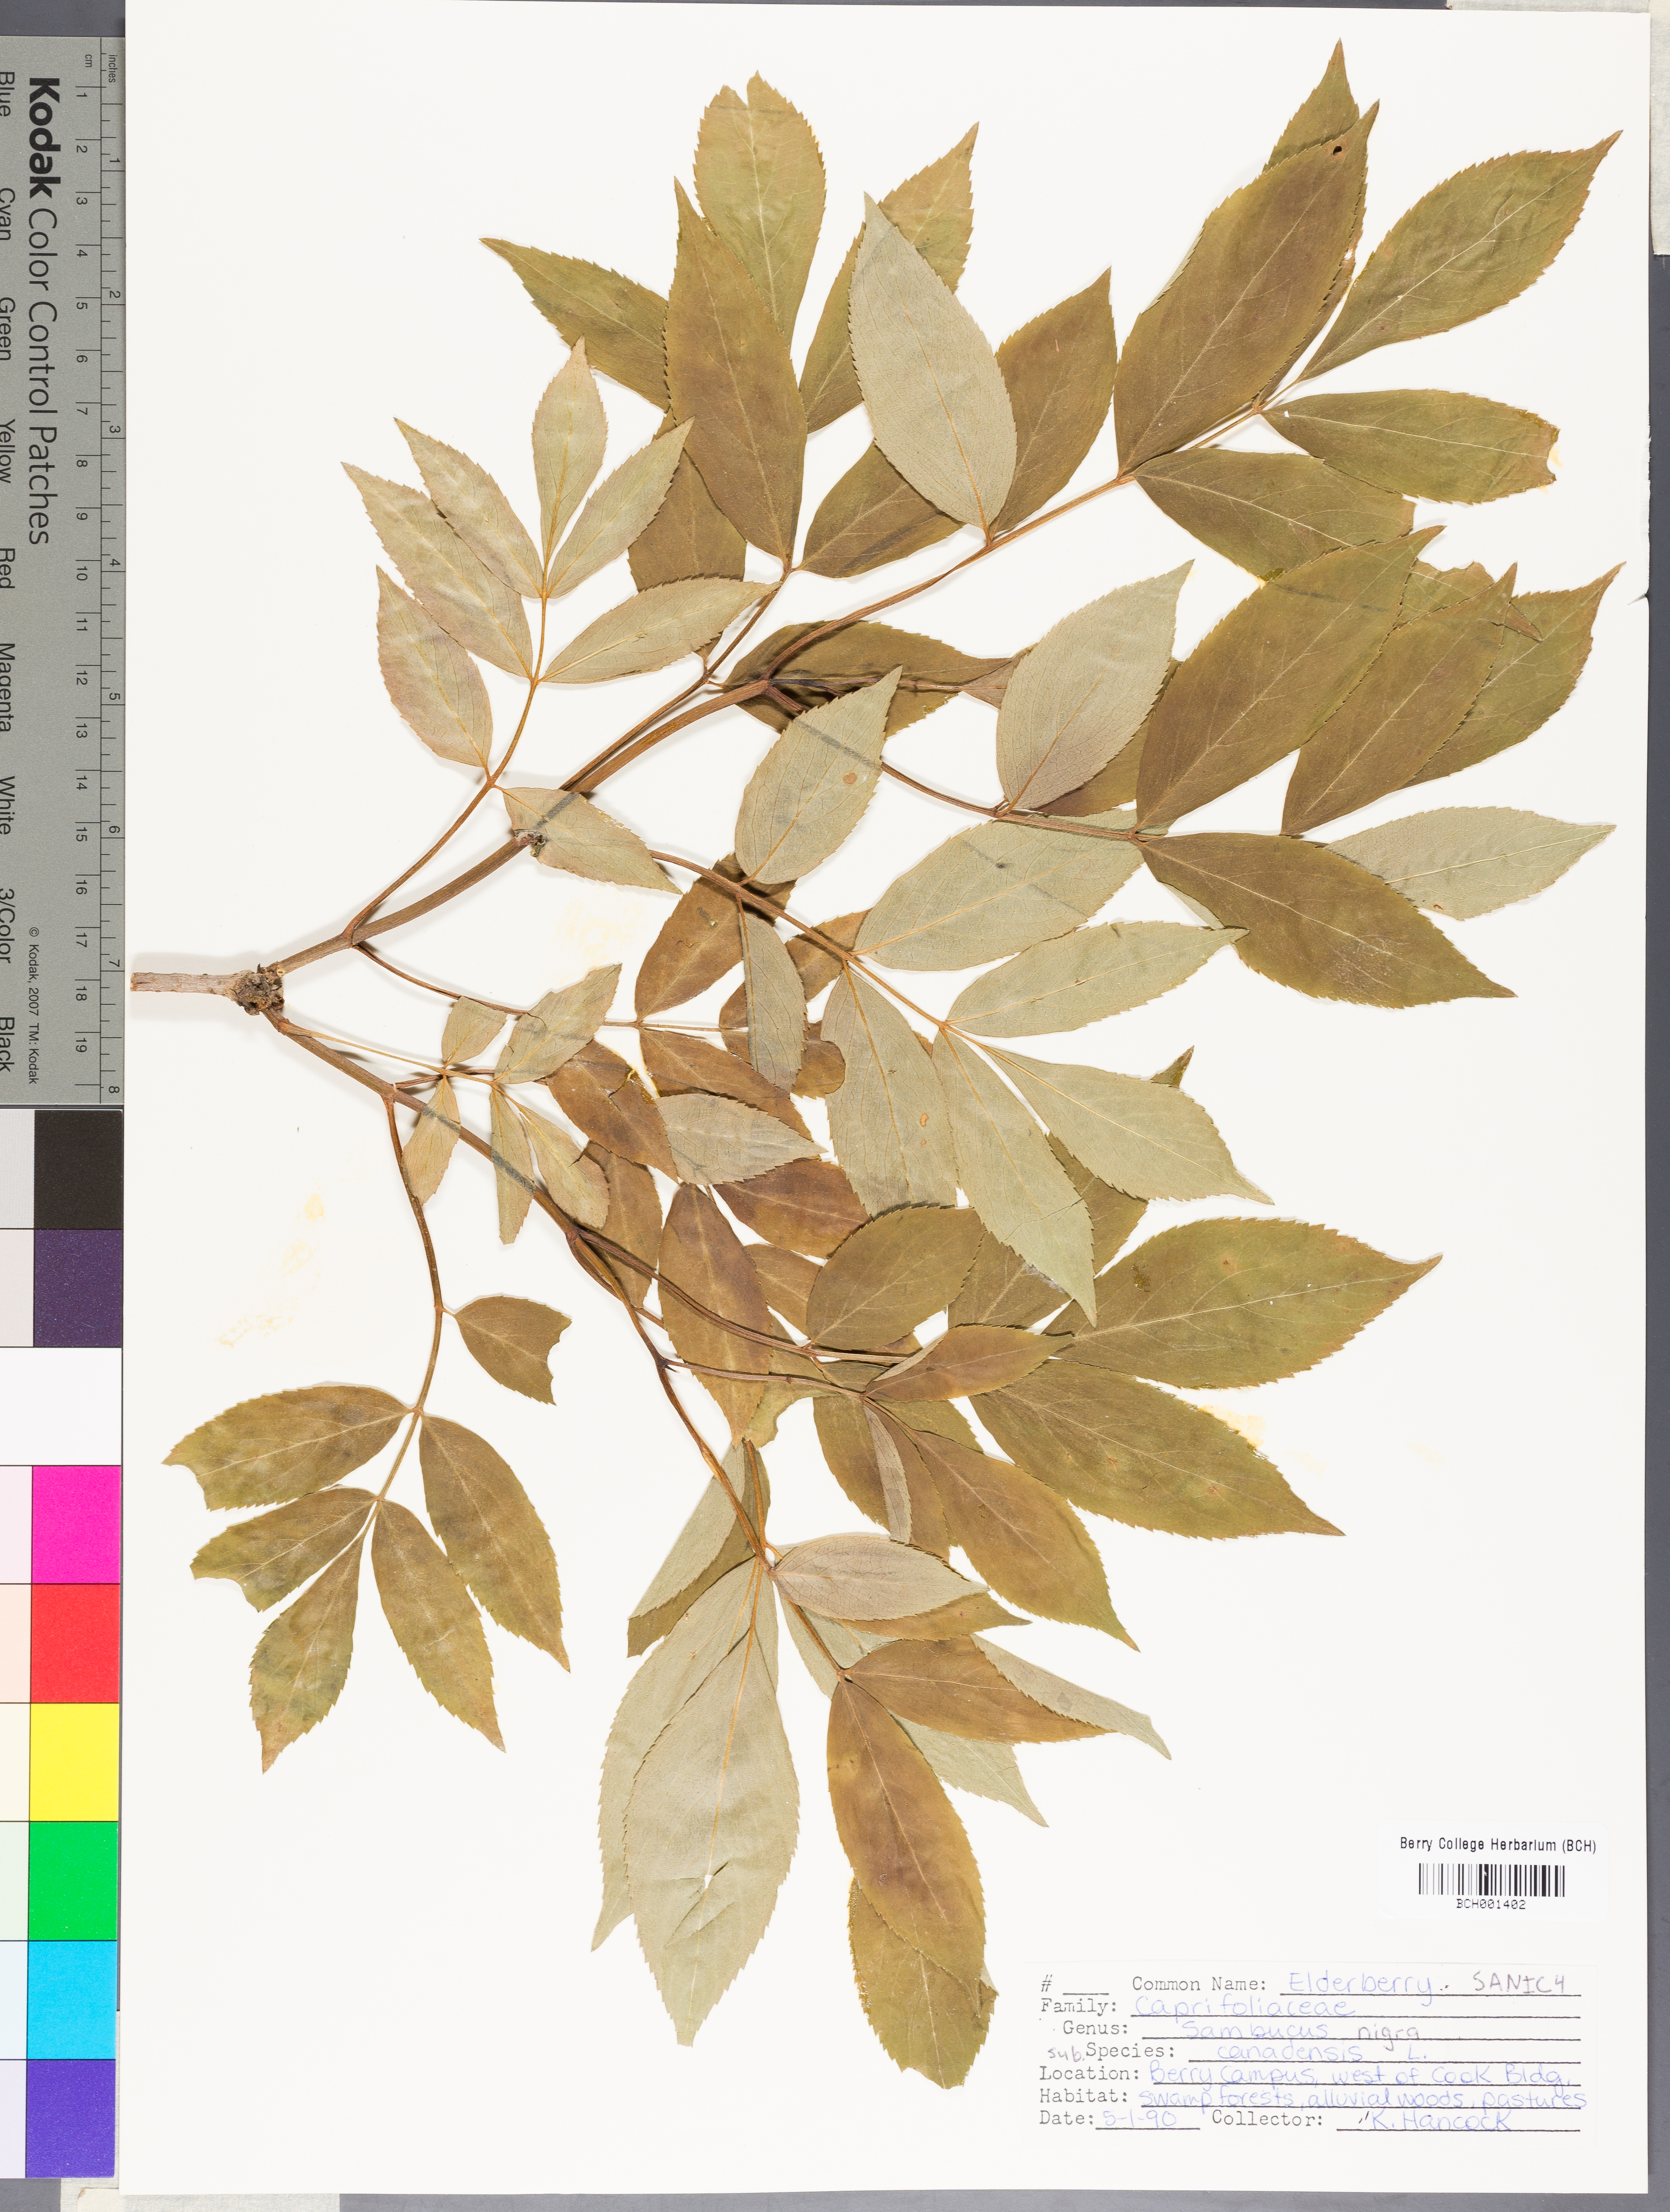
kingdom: Plantae
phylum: Tracheophyta
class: Magnoliopsida
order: Dipsacales
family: Viburnaceae
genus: Sambucus
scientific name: Sambucus canadensis
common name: American elder
